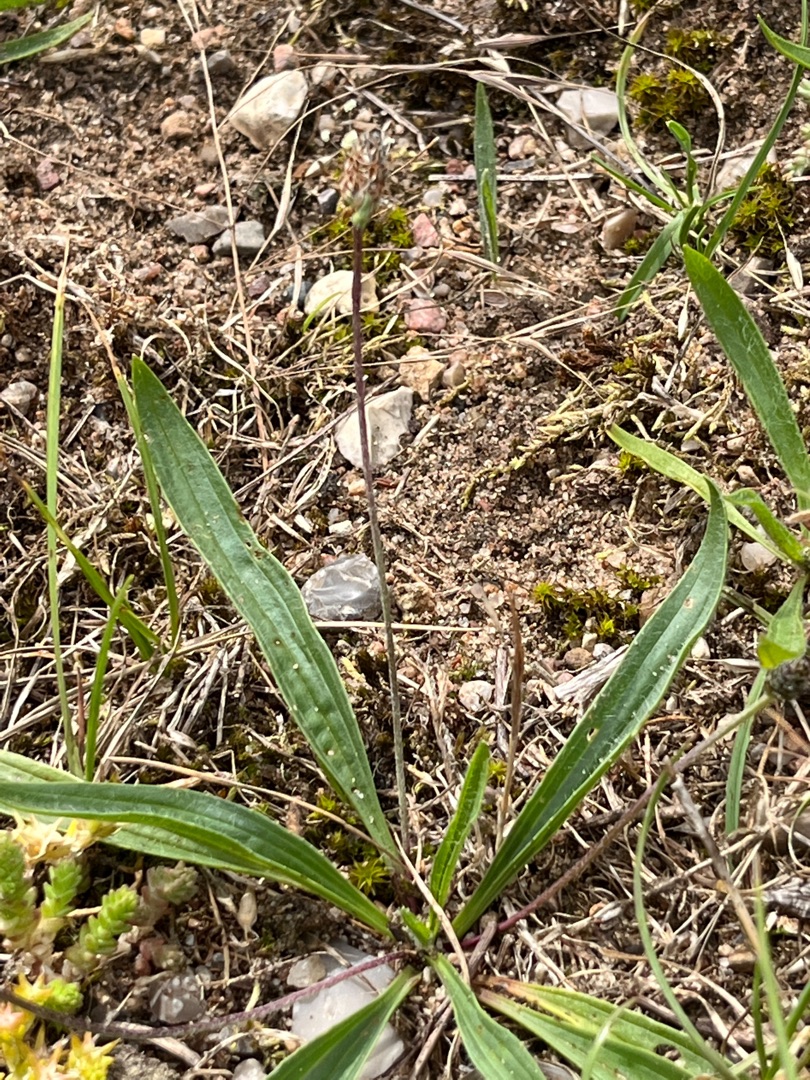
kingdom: Plantae
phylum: Tracheophyta
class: Magnoliopsida
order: Lamiales
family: Plantaginaceae
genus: Plantago
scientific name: Plantago lanceolata
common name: Lancet-vejbred
